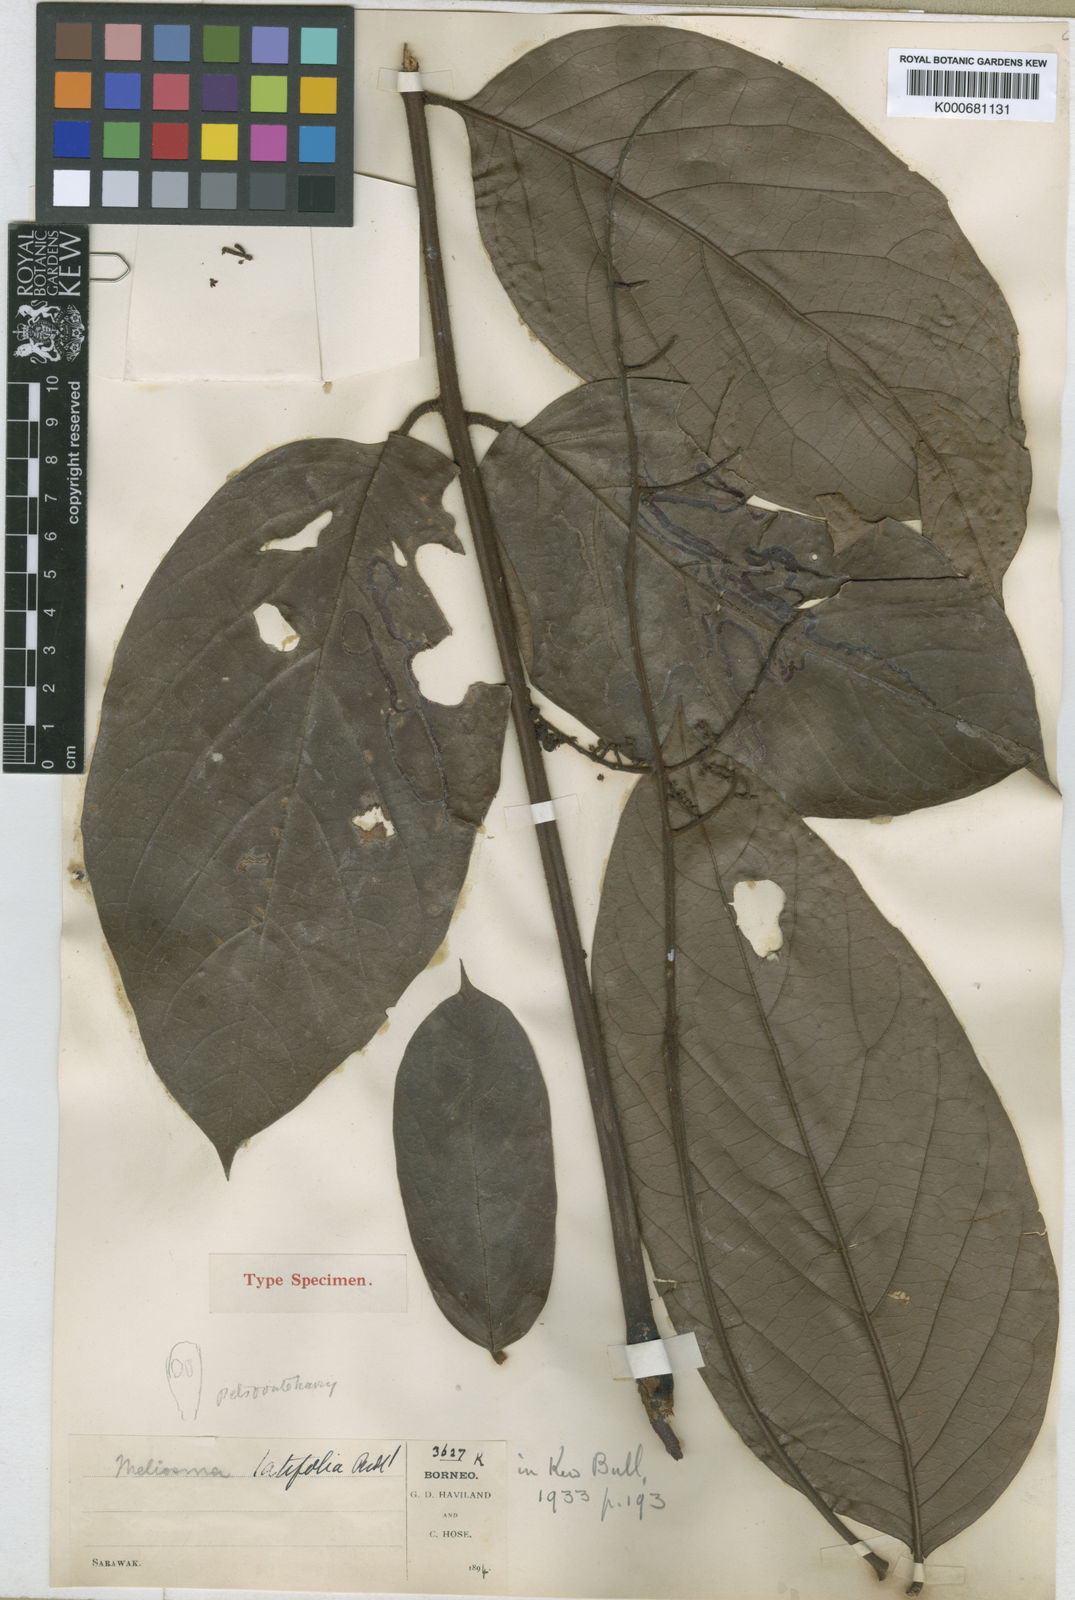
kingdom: Plantae
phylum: Tracheophyta
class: Magnoliopsida
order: Proteales
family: Sabiaceae
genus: Meliosma
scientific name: Meliosma pinnata
